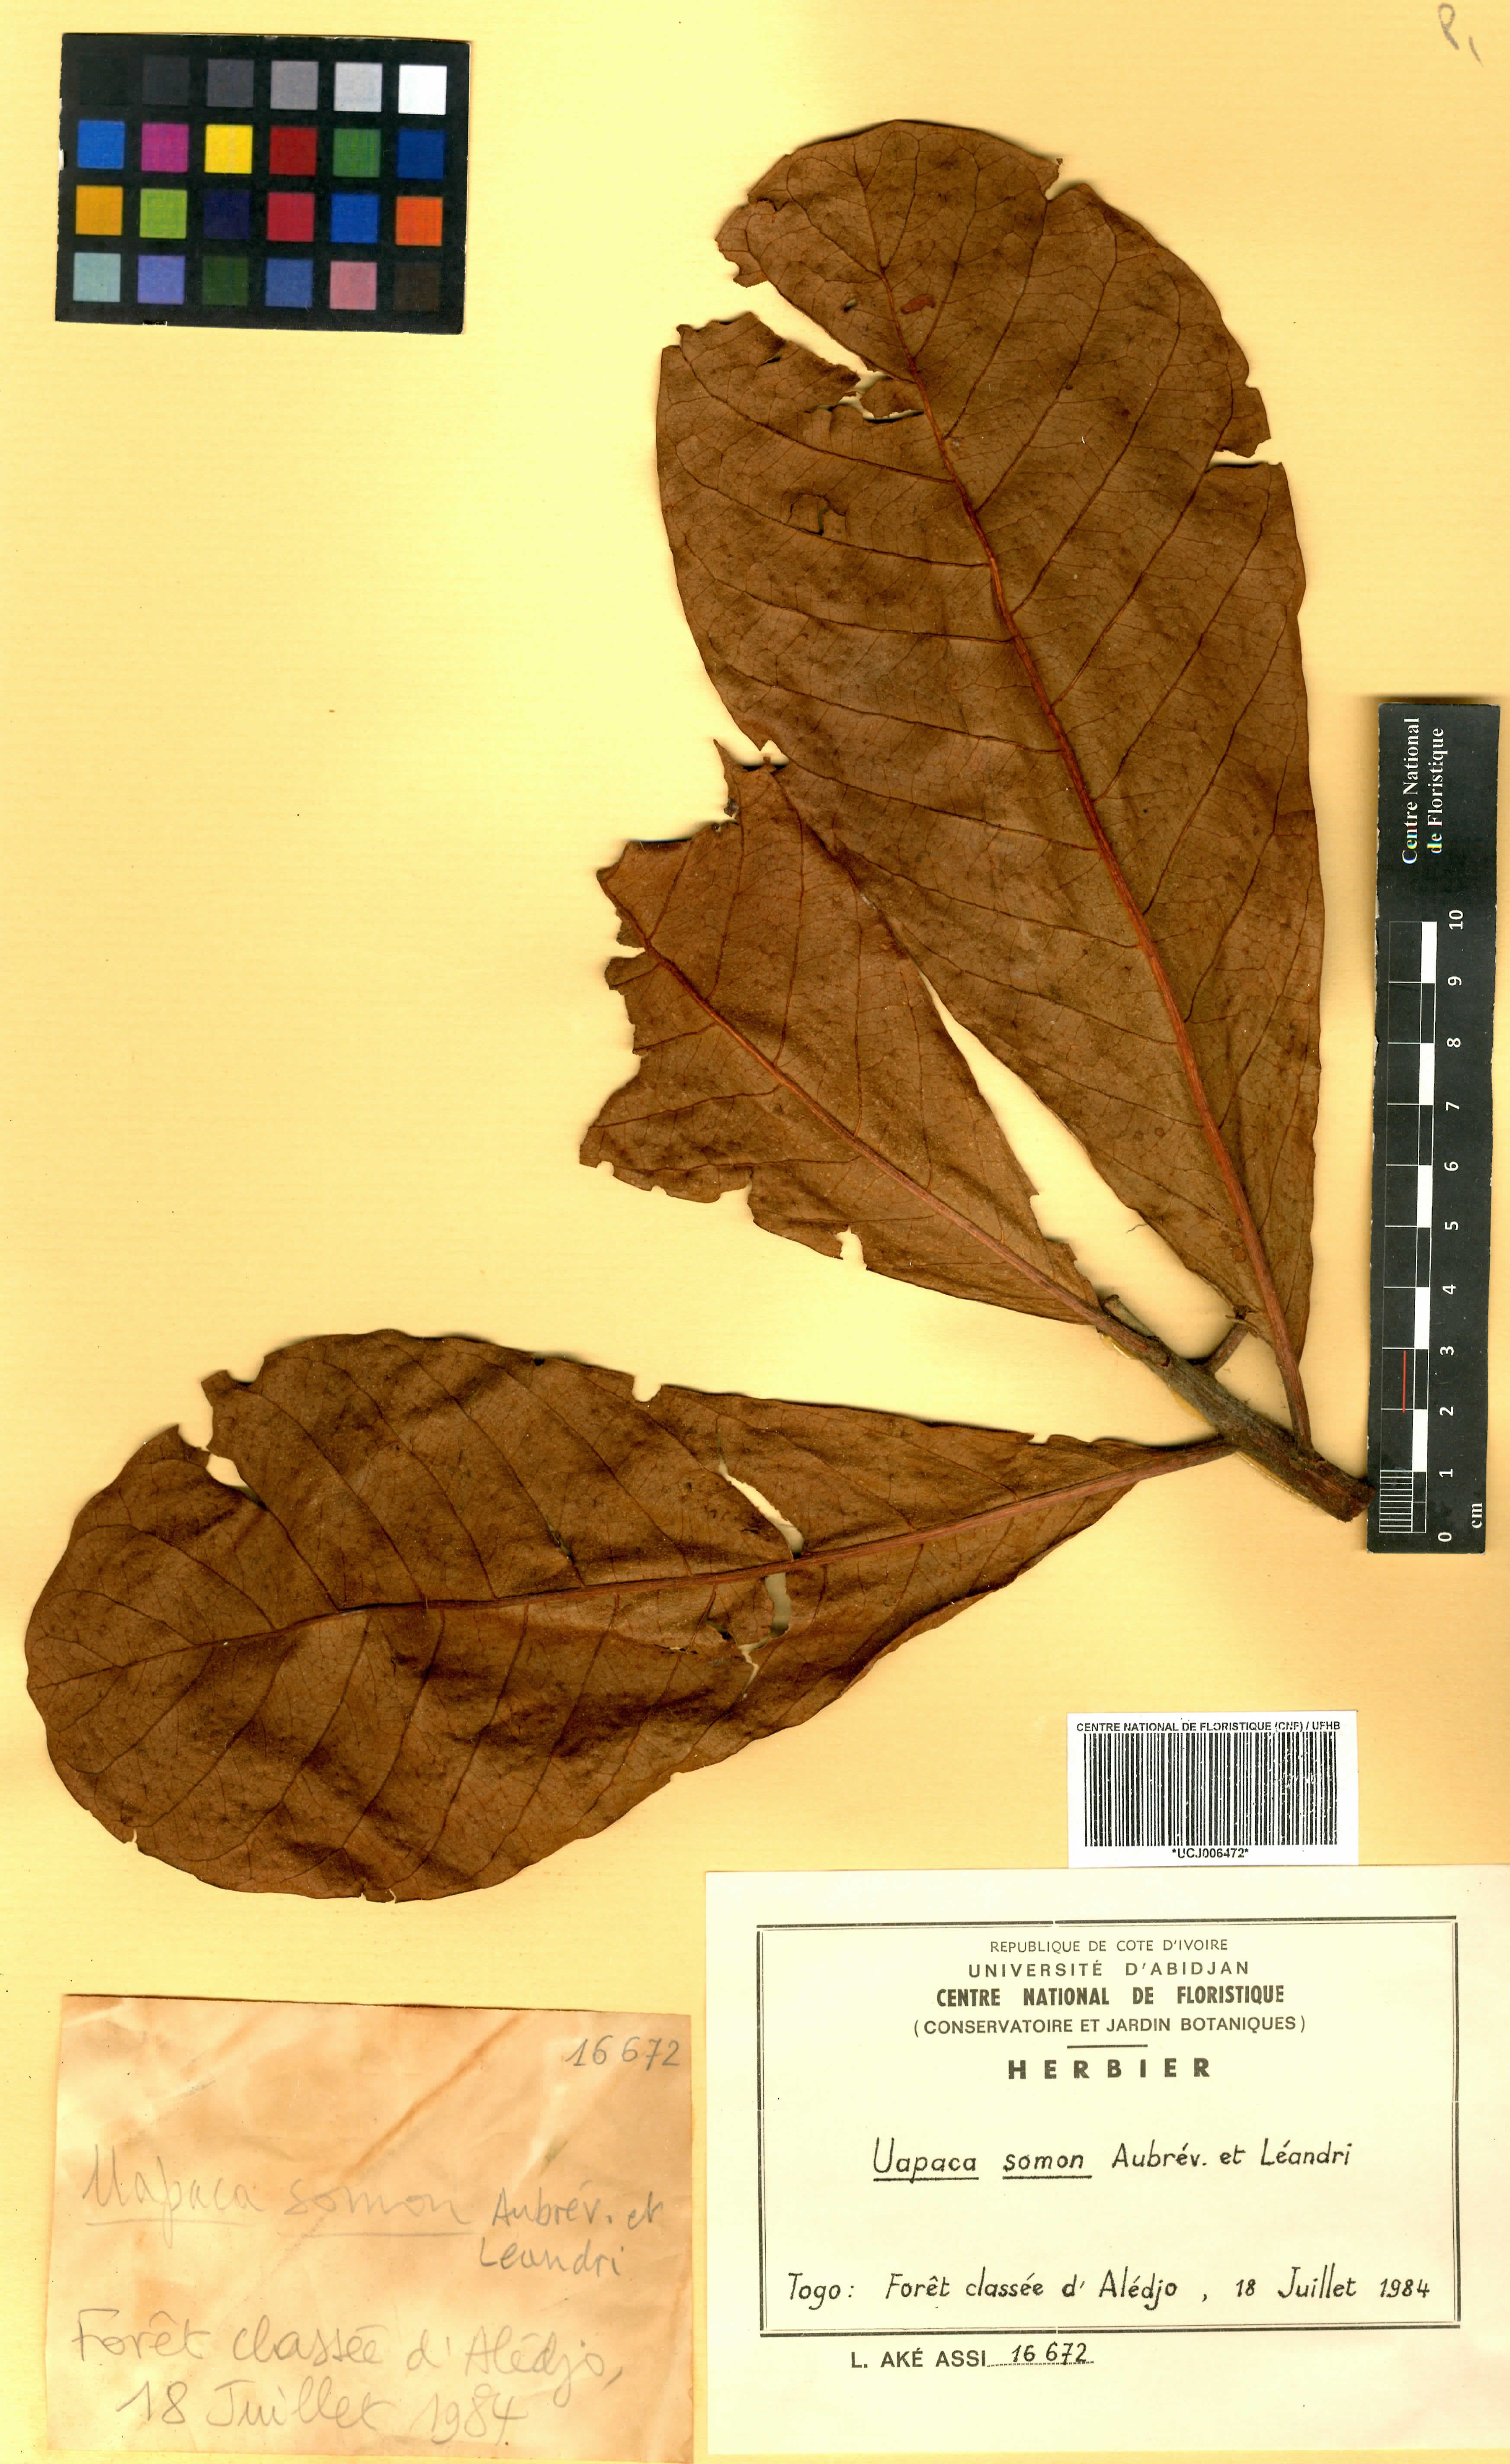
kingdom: Plantae
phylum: Tracheophyta
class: Magnoliopsida
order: Malpighiales
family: Phyllanthaceae
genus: Uapaca
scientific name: Uapaca togoensis
